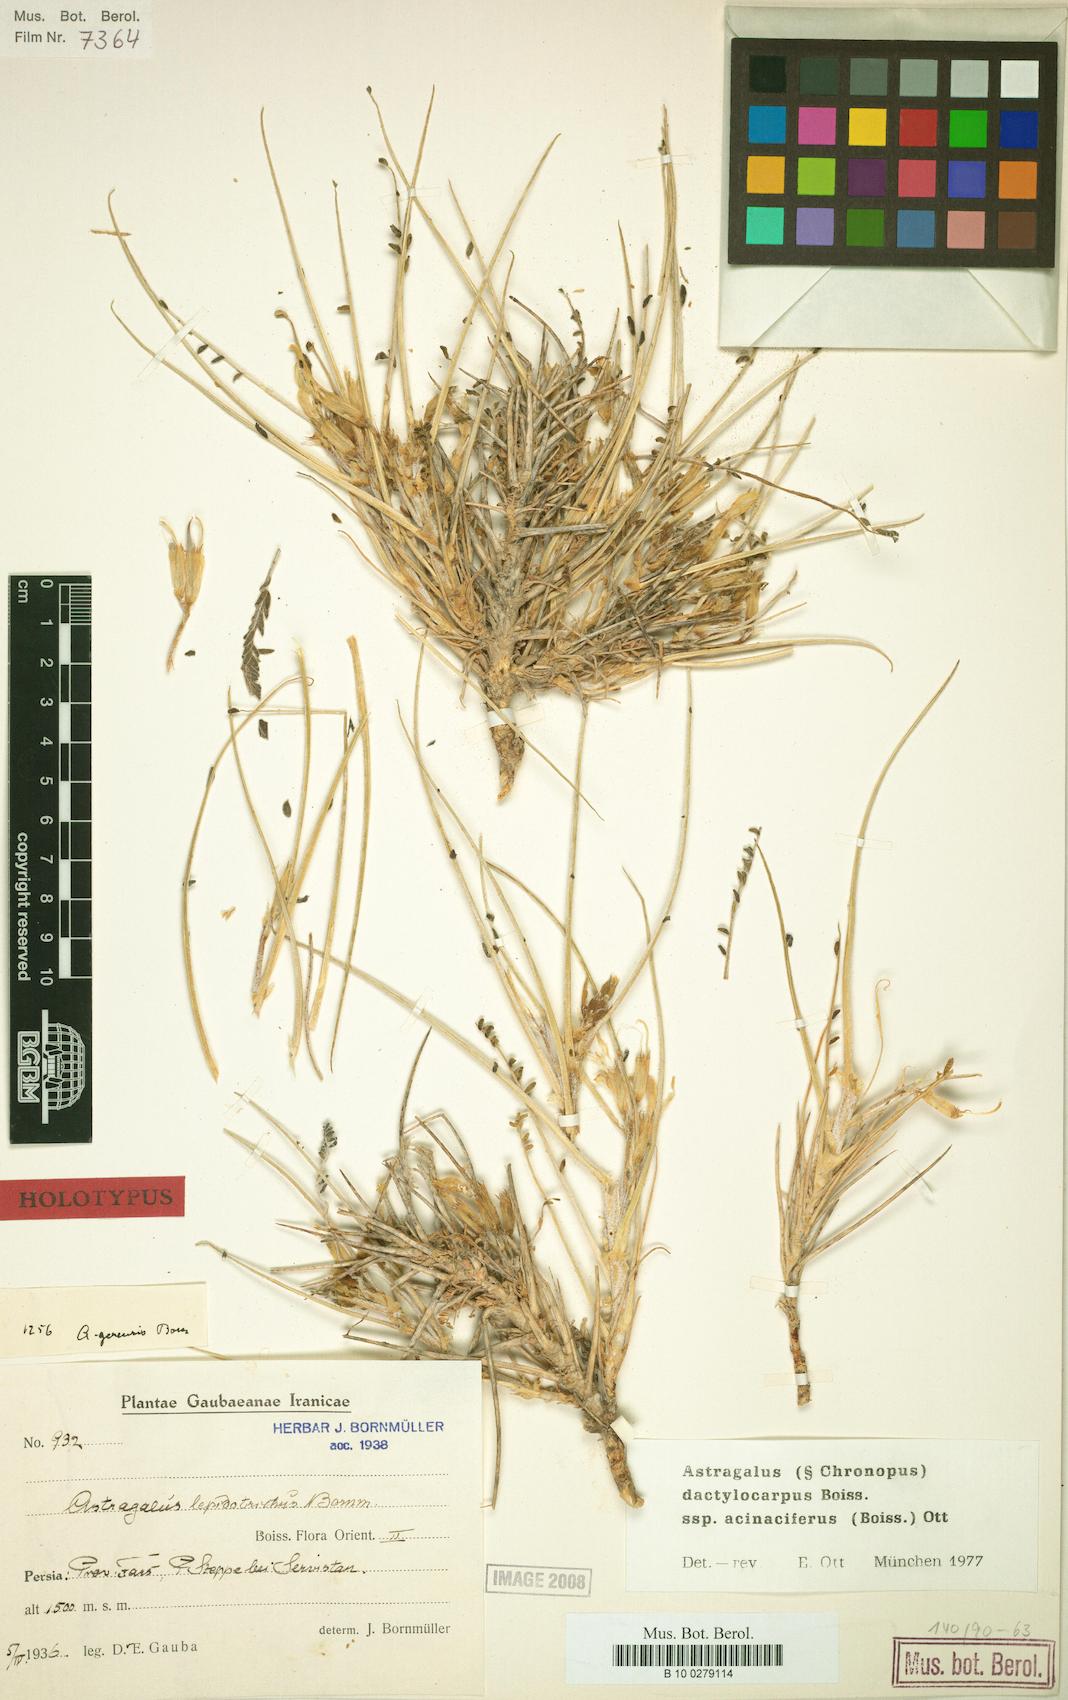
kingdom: Plantae
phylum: Tracheophyta
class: Magnoliopsida
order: Fabales
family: Fabaceae
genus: Astragalus
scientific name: Astragalus dactylocarpus
